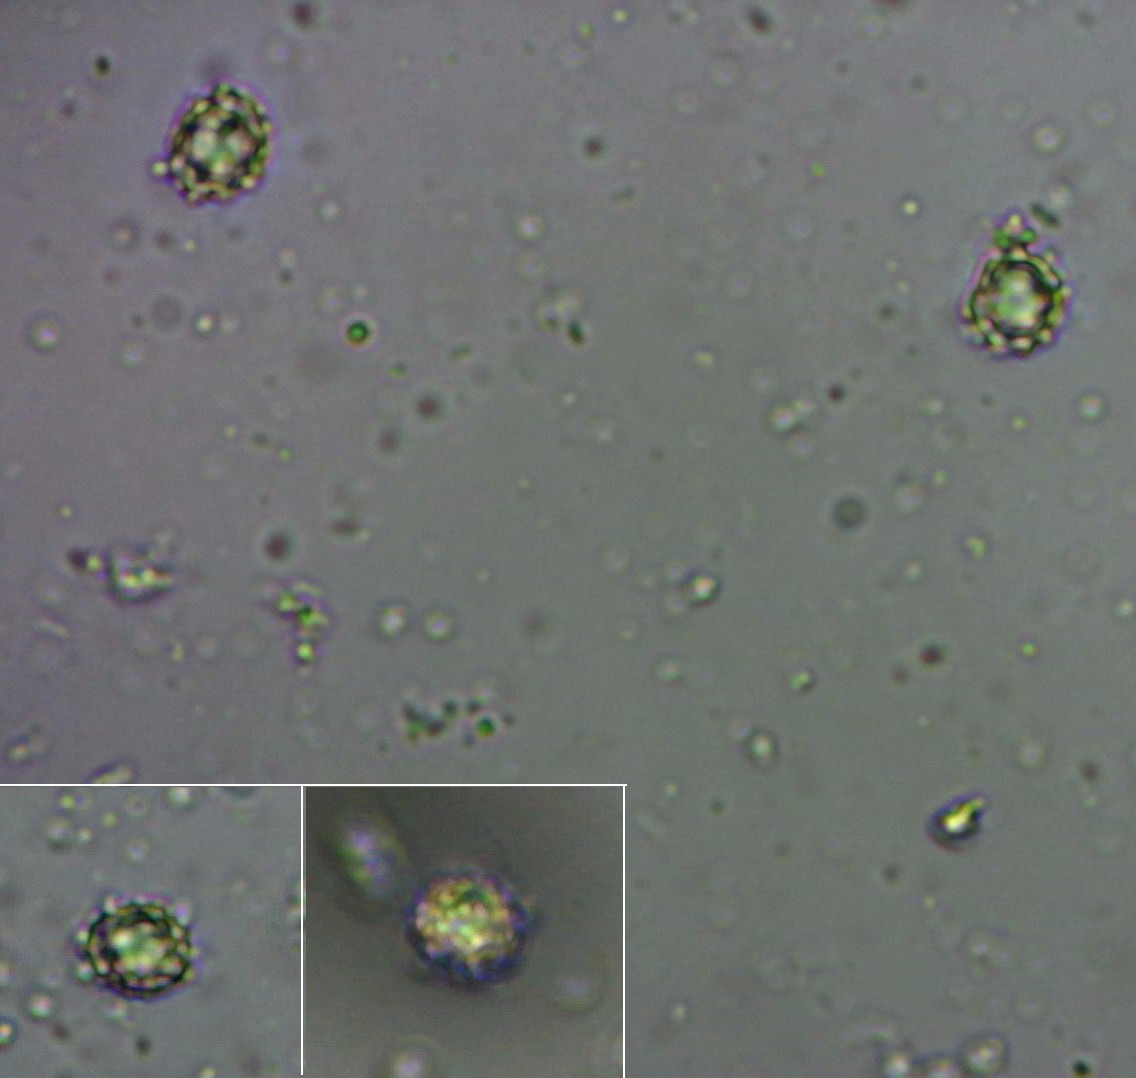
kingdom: Fungi
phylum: Basidiomycota
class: Agaricomycetes
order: Russulales
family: Russulaceae
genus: Russula
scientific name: Russula foetens
